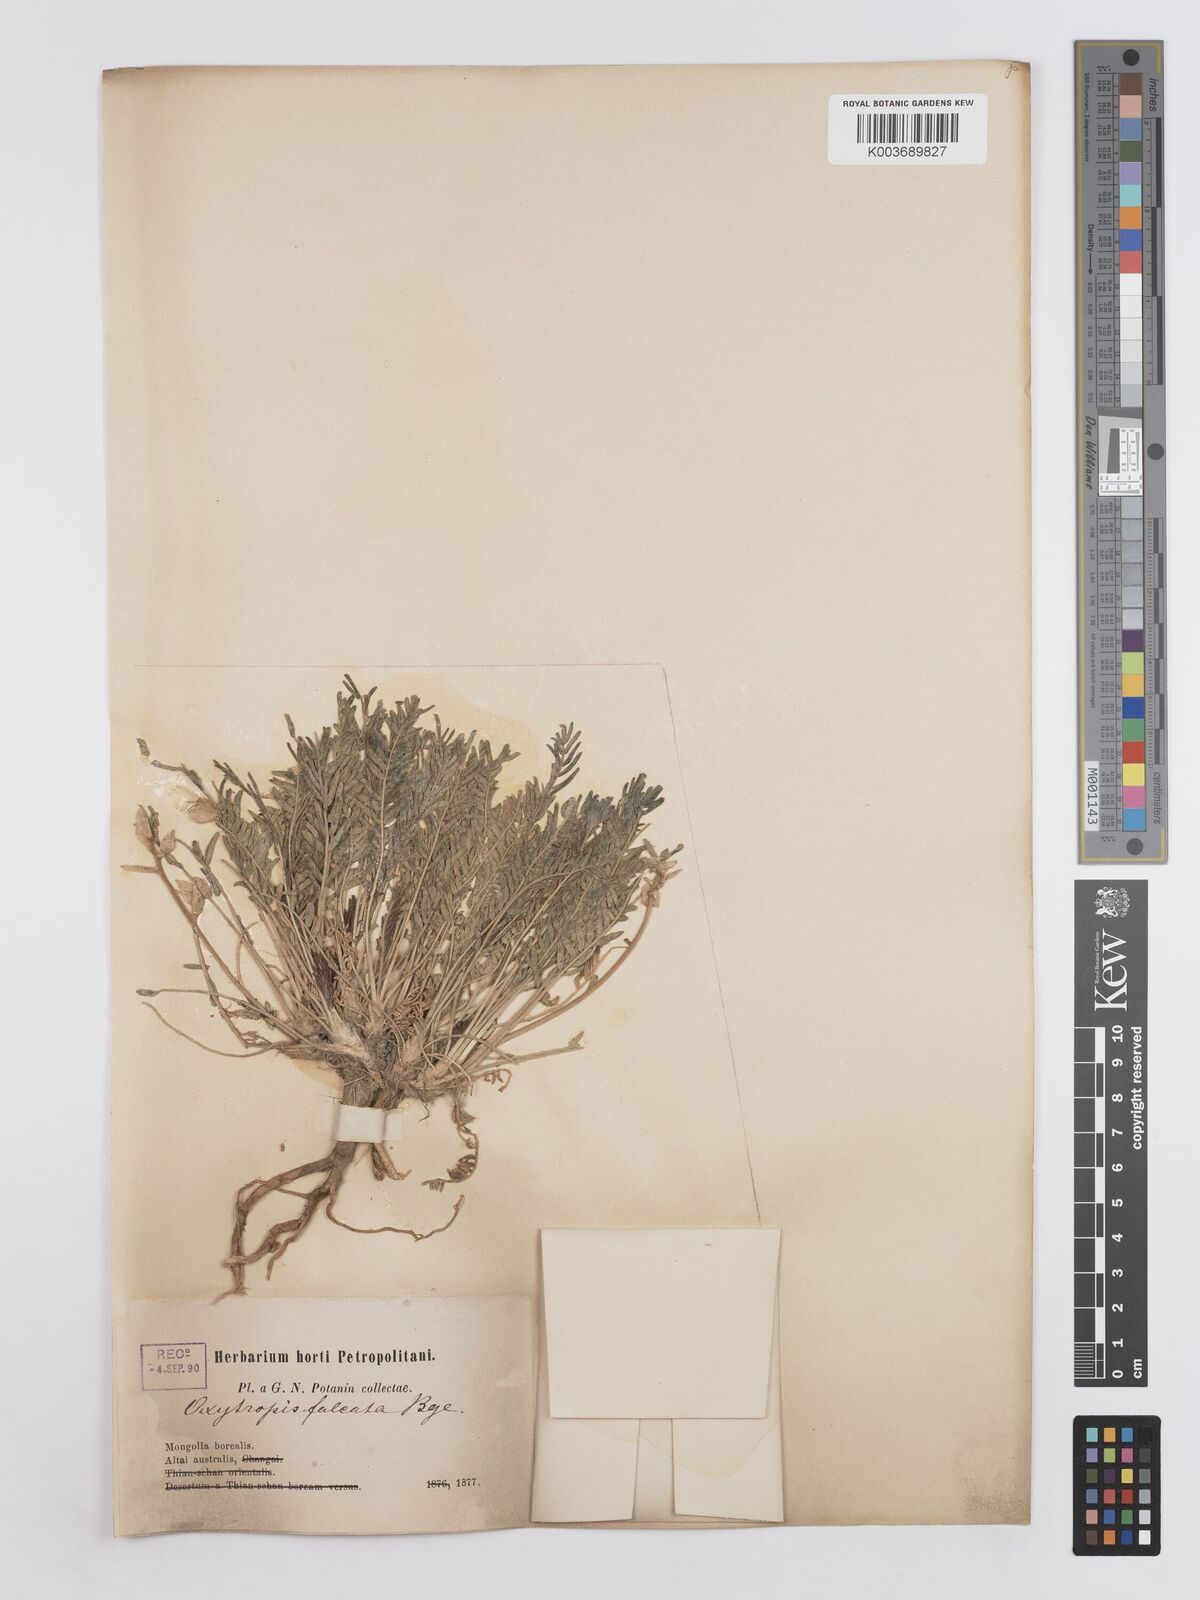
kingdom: Plantae
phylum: Tracheophyta
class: Magnoliopsida
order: Fabales
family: Fabaceae
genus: Oxytropis
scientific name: Oxytropis falcata
